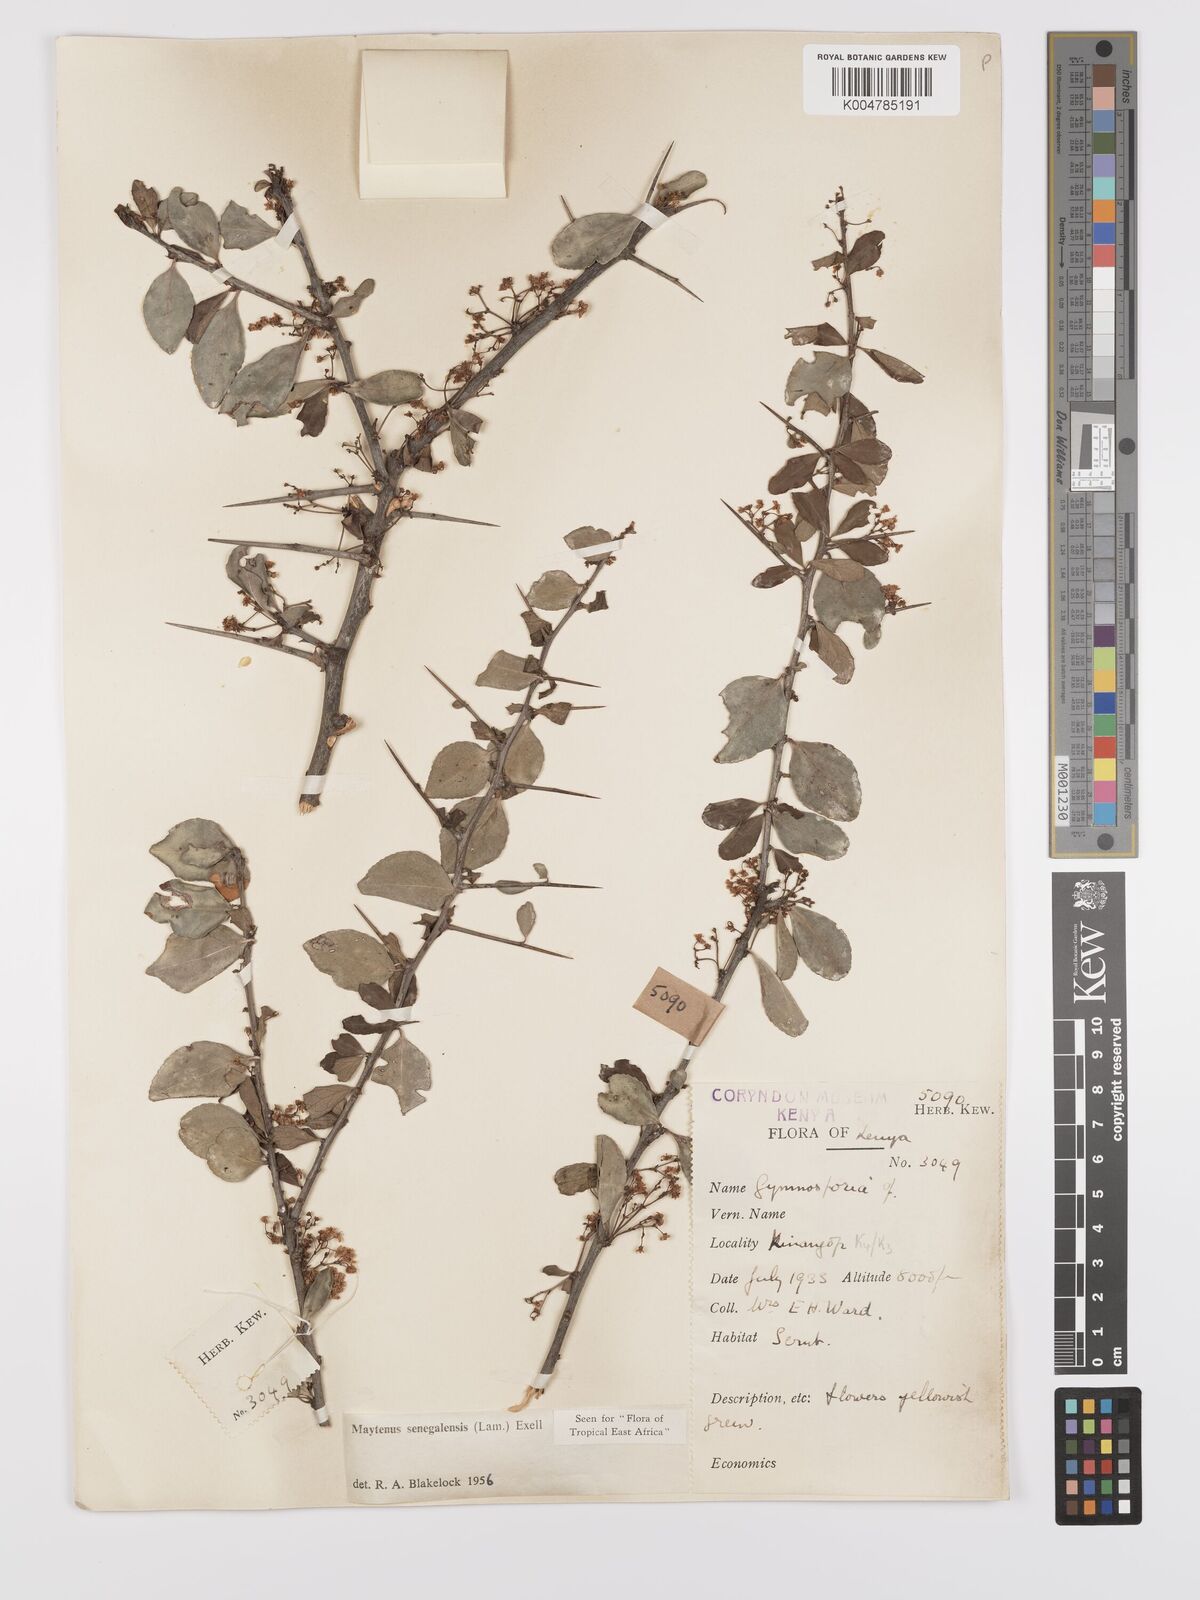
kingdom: Plantae
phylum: Tracheophyta
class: Magnoliopsida
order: Celastrales
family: Celastraceae
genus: Gymnosporia
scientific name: Gymnosporia heterophylla
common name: Angle-stem spikethorn
